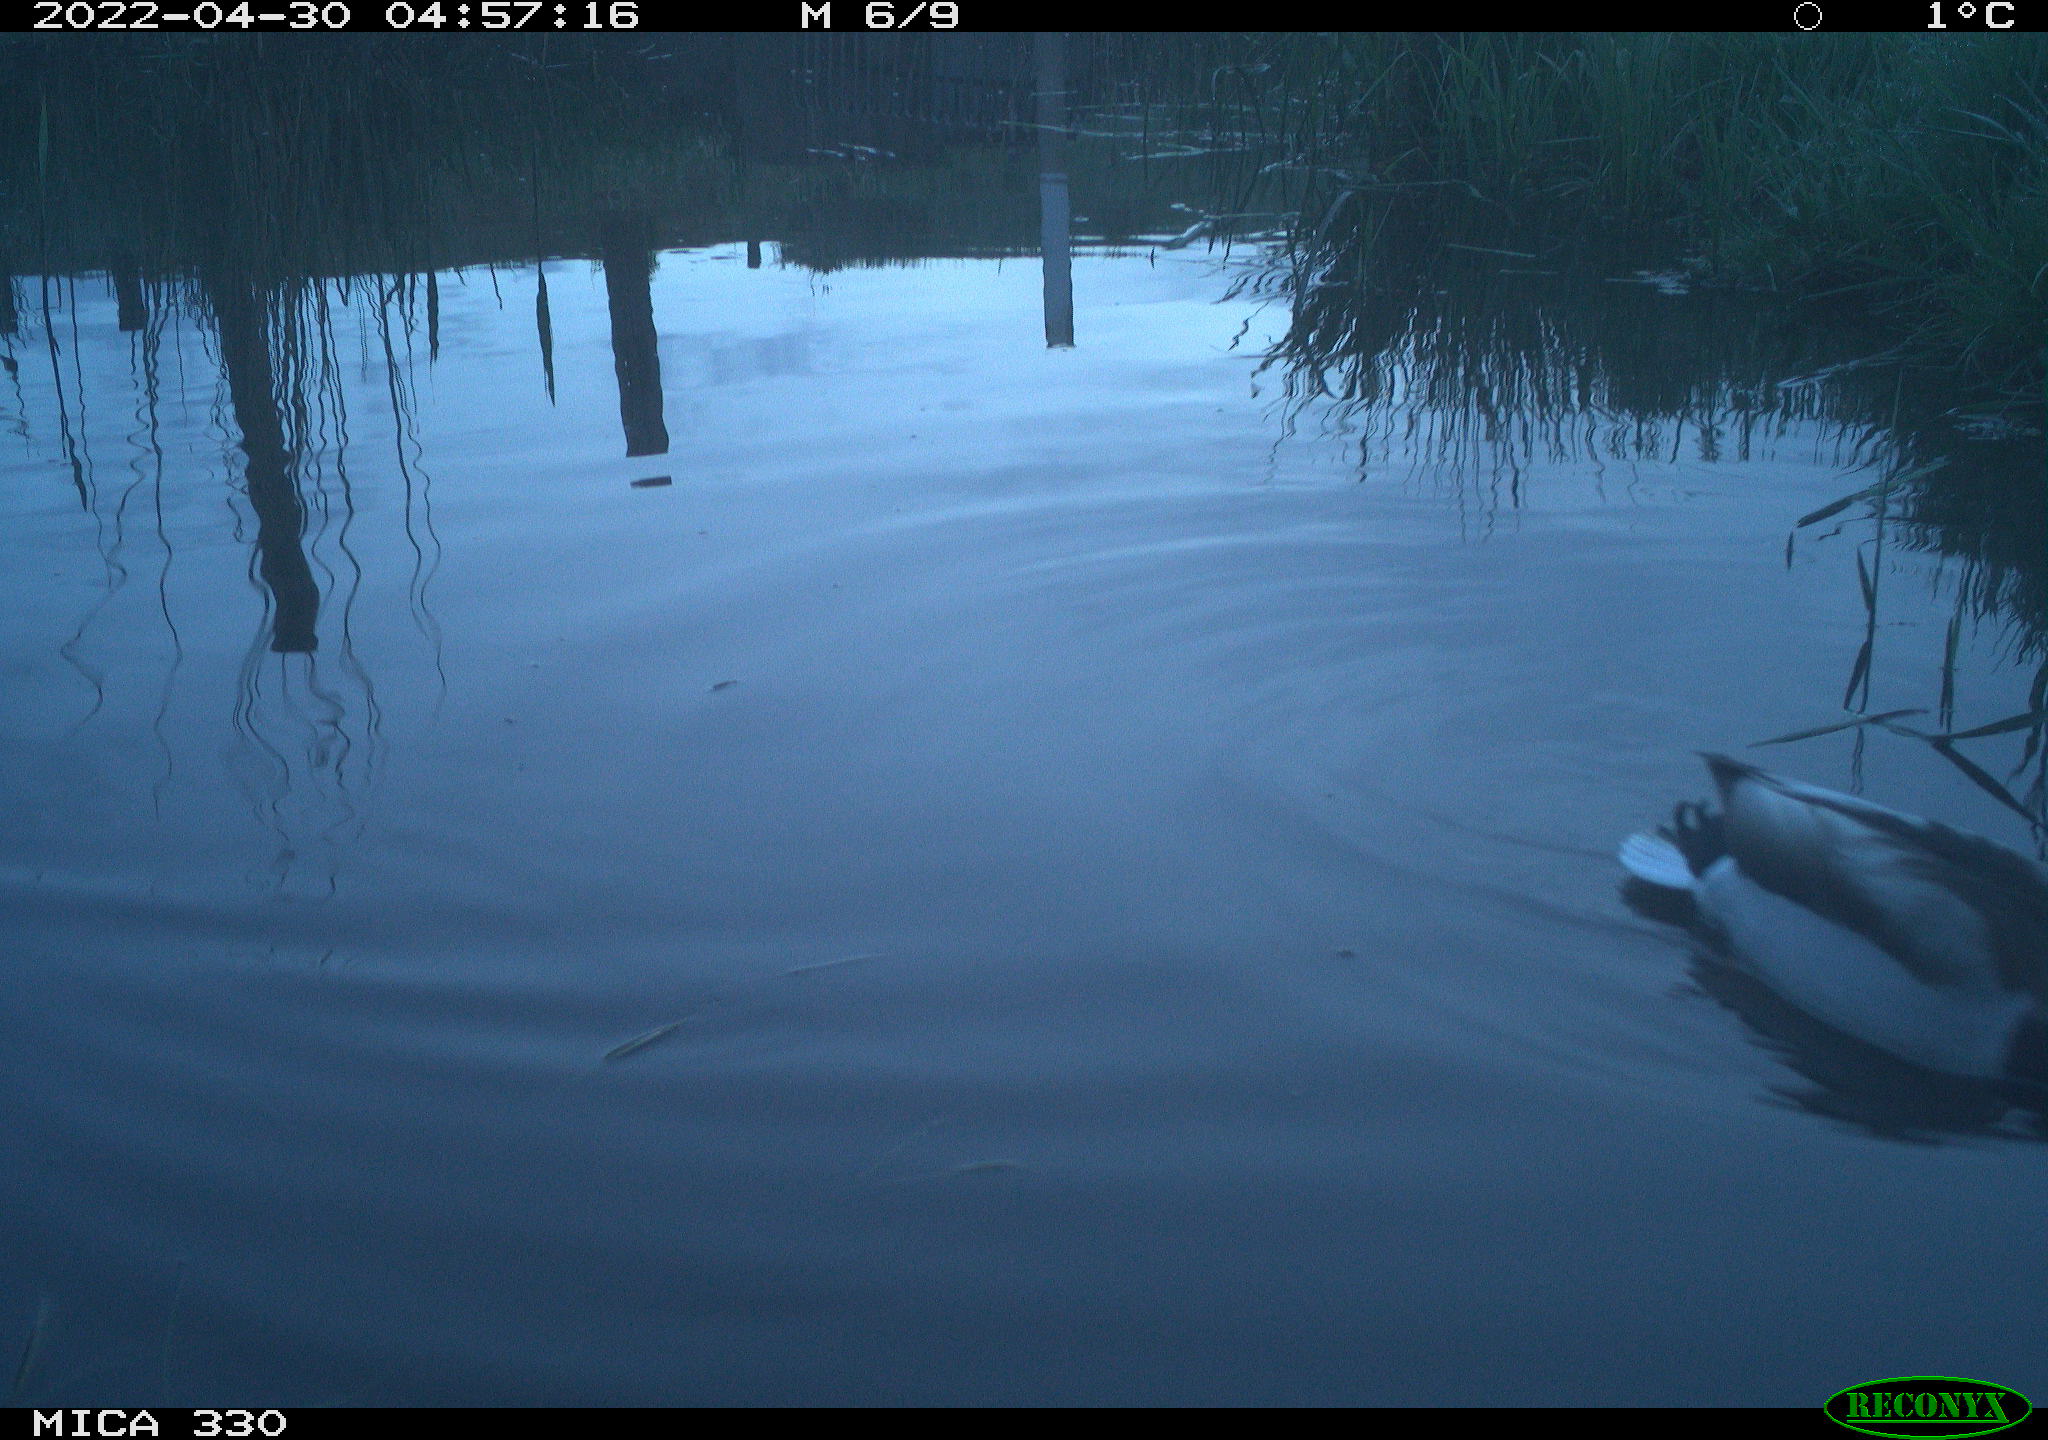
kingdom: Animalia
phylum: Chordata
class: Aves
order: Gruiformes
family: Rallidae
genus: Fulica
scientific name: Fulica atra
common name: Eurasian coot
